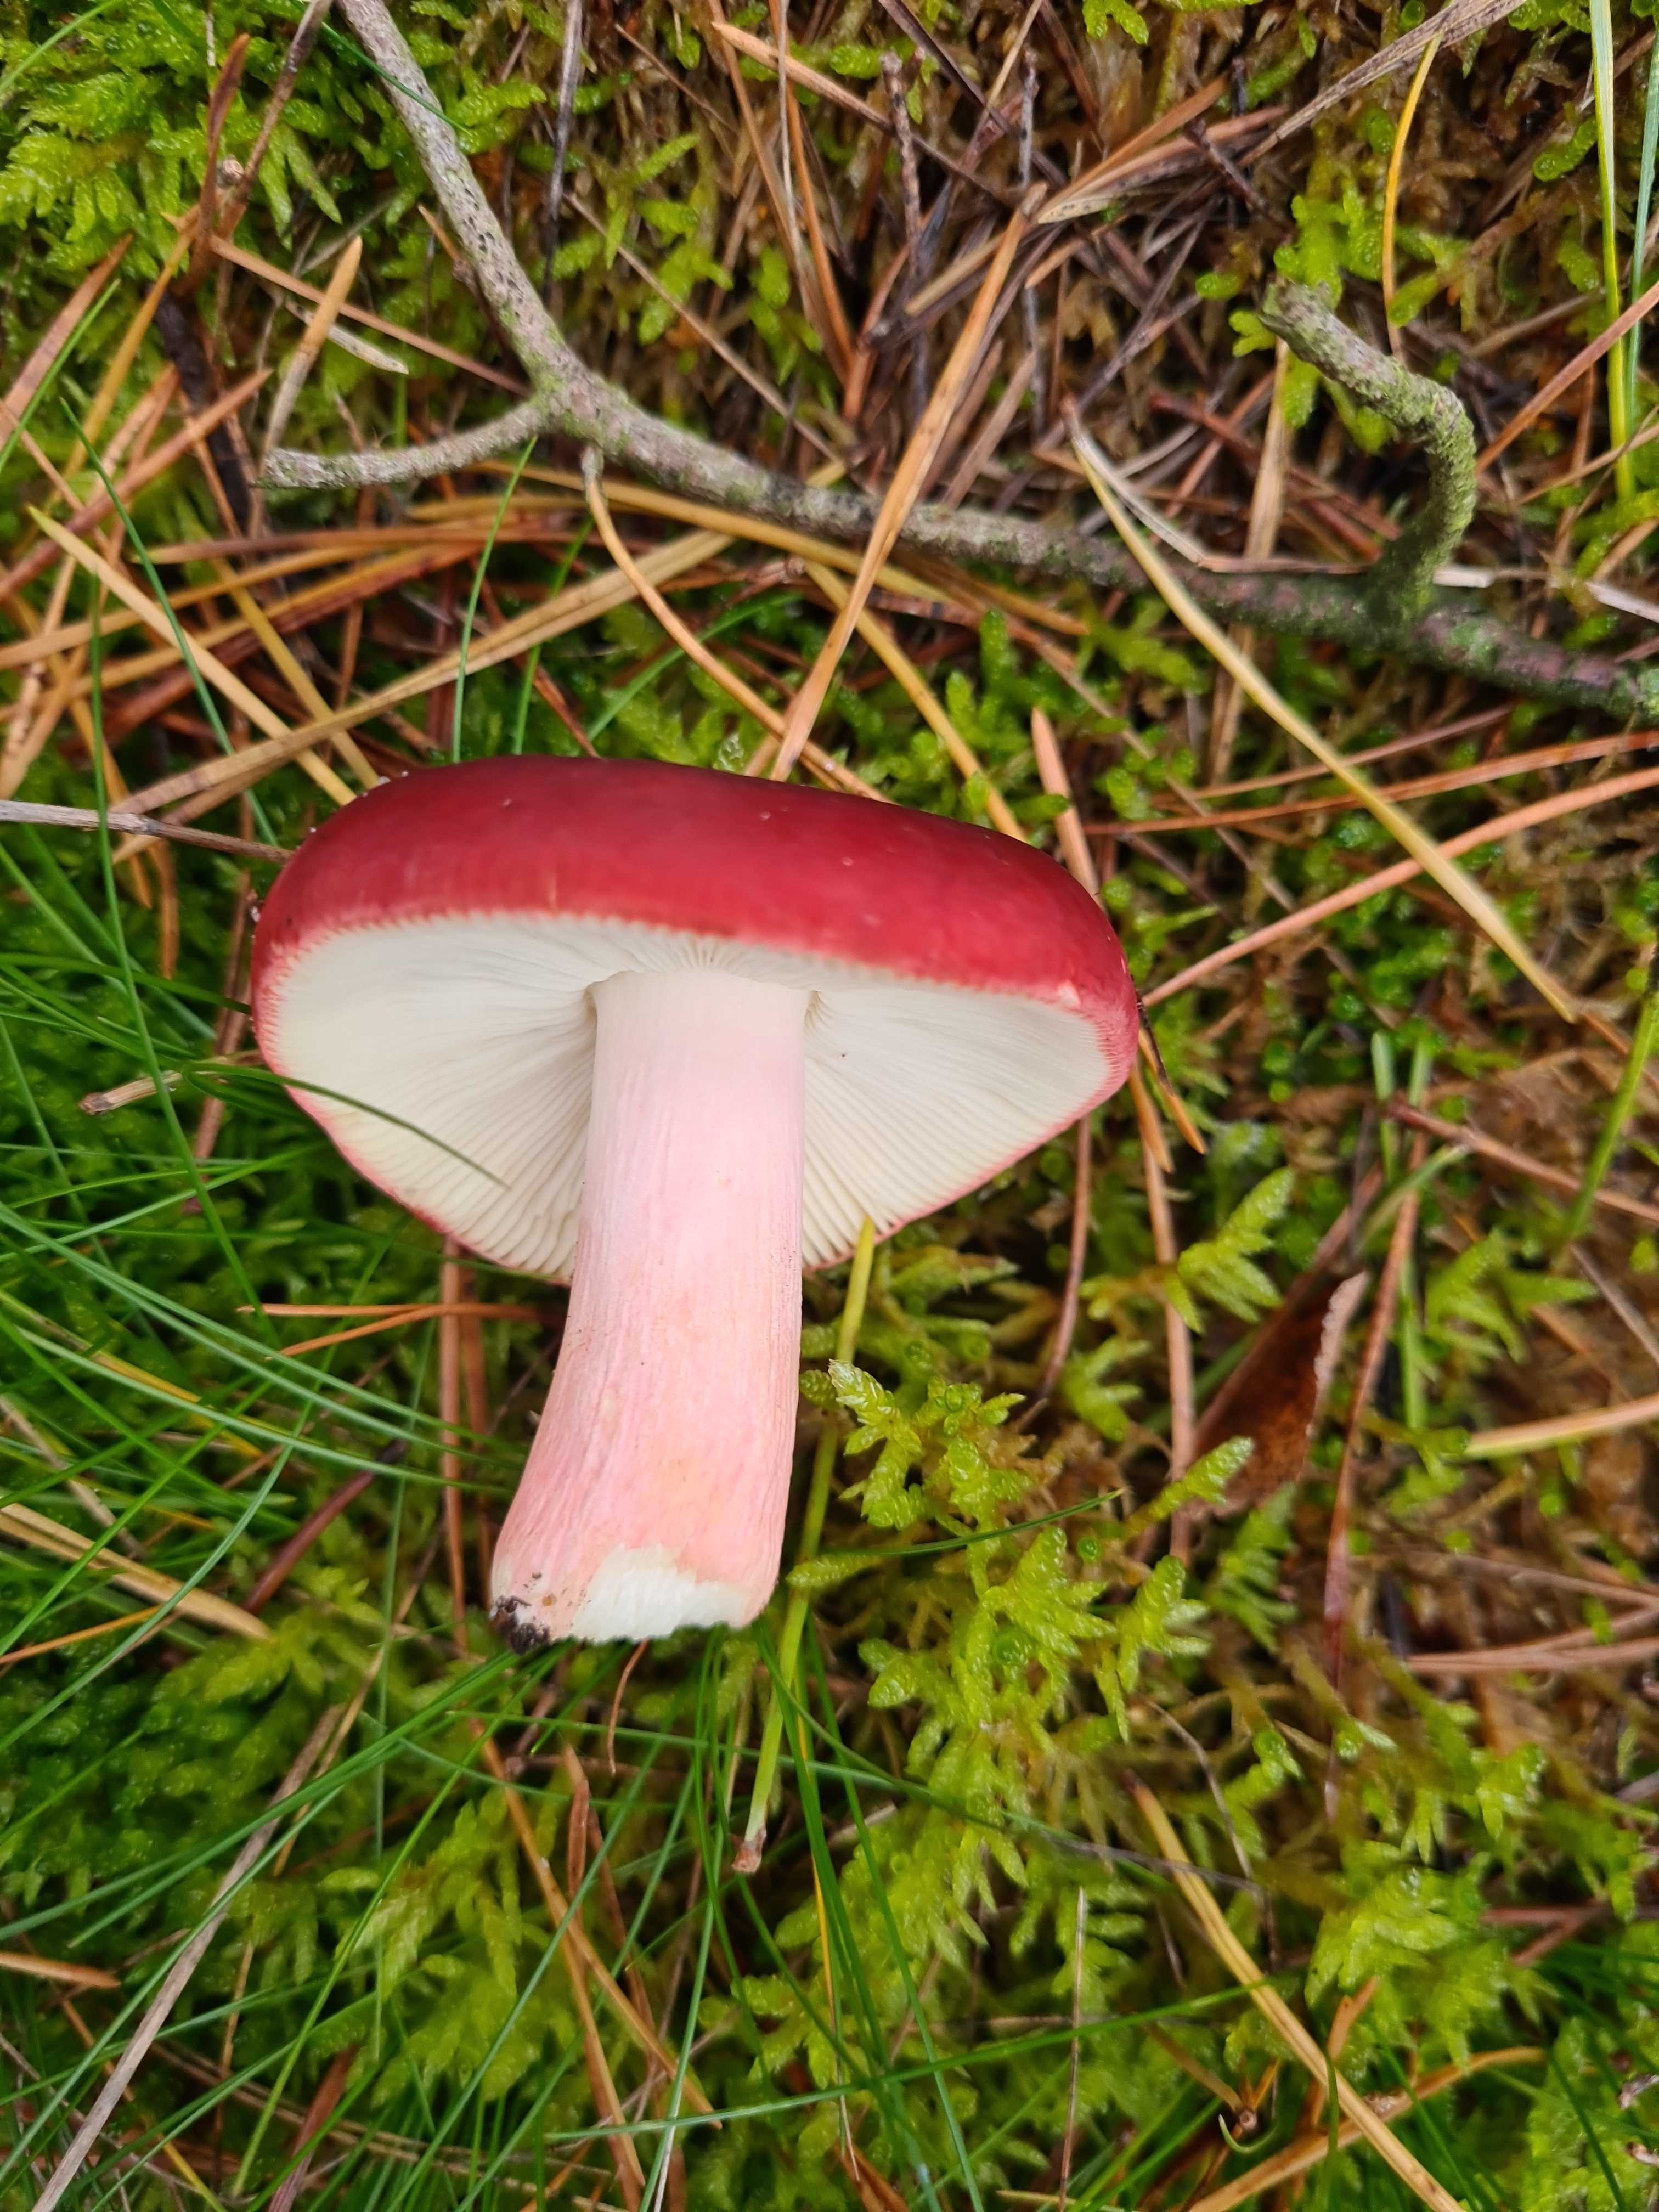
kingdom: Fungi
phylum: Basidiomycota
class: Agaricomycetes
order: Russulales
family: Russulaceae
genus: Russula
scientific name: Russula xerampelina
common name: hummer-skørhat
